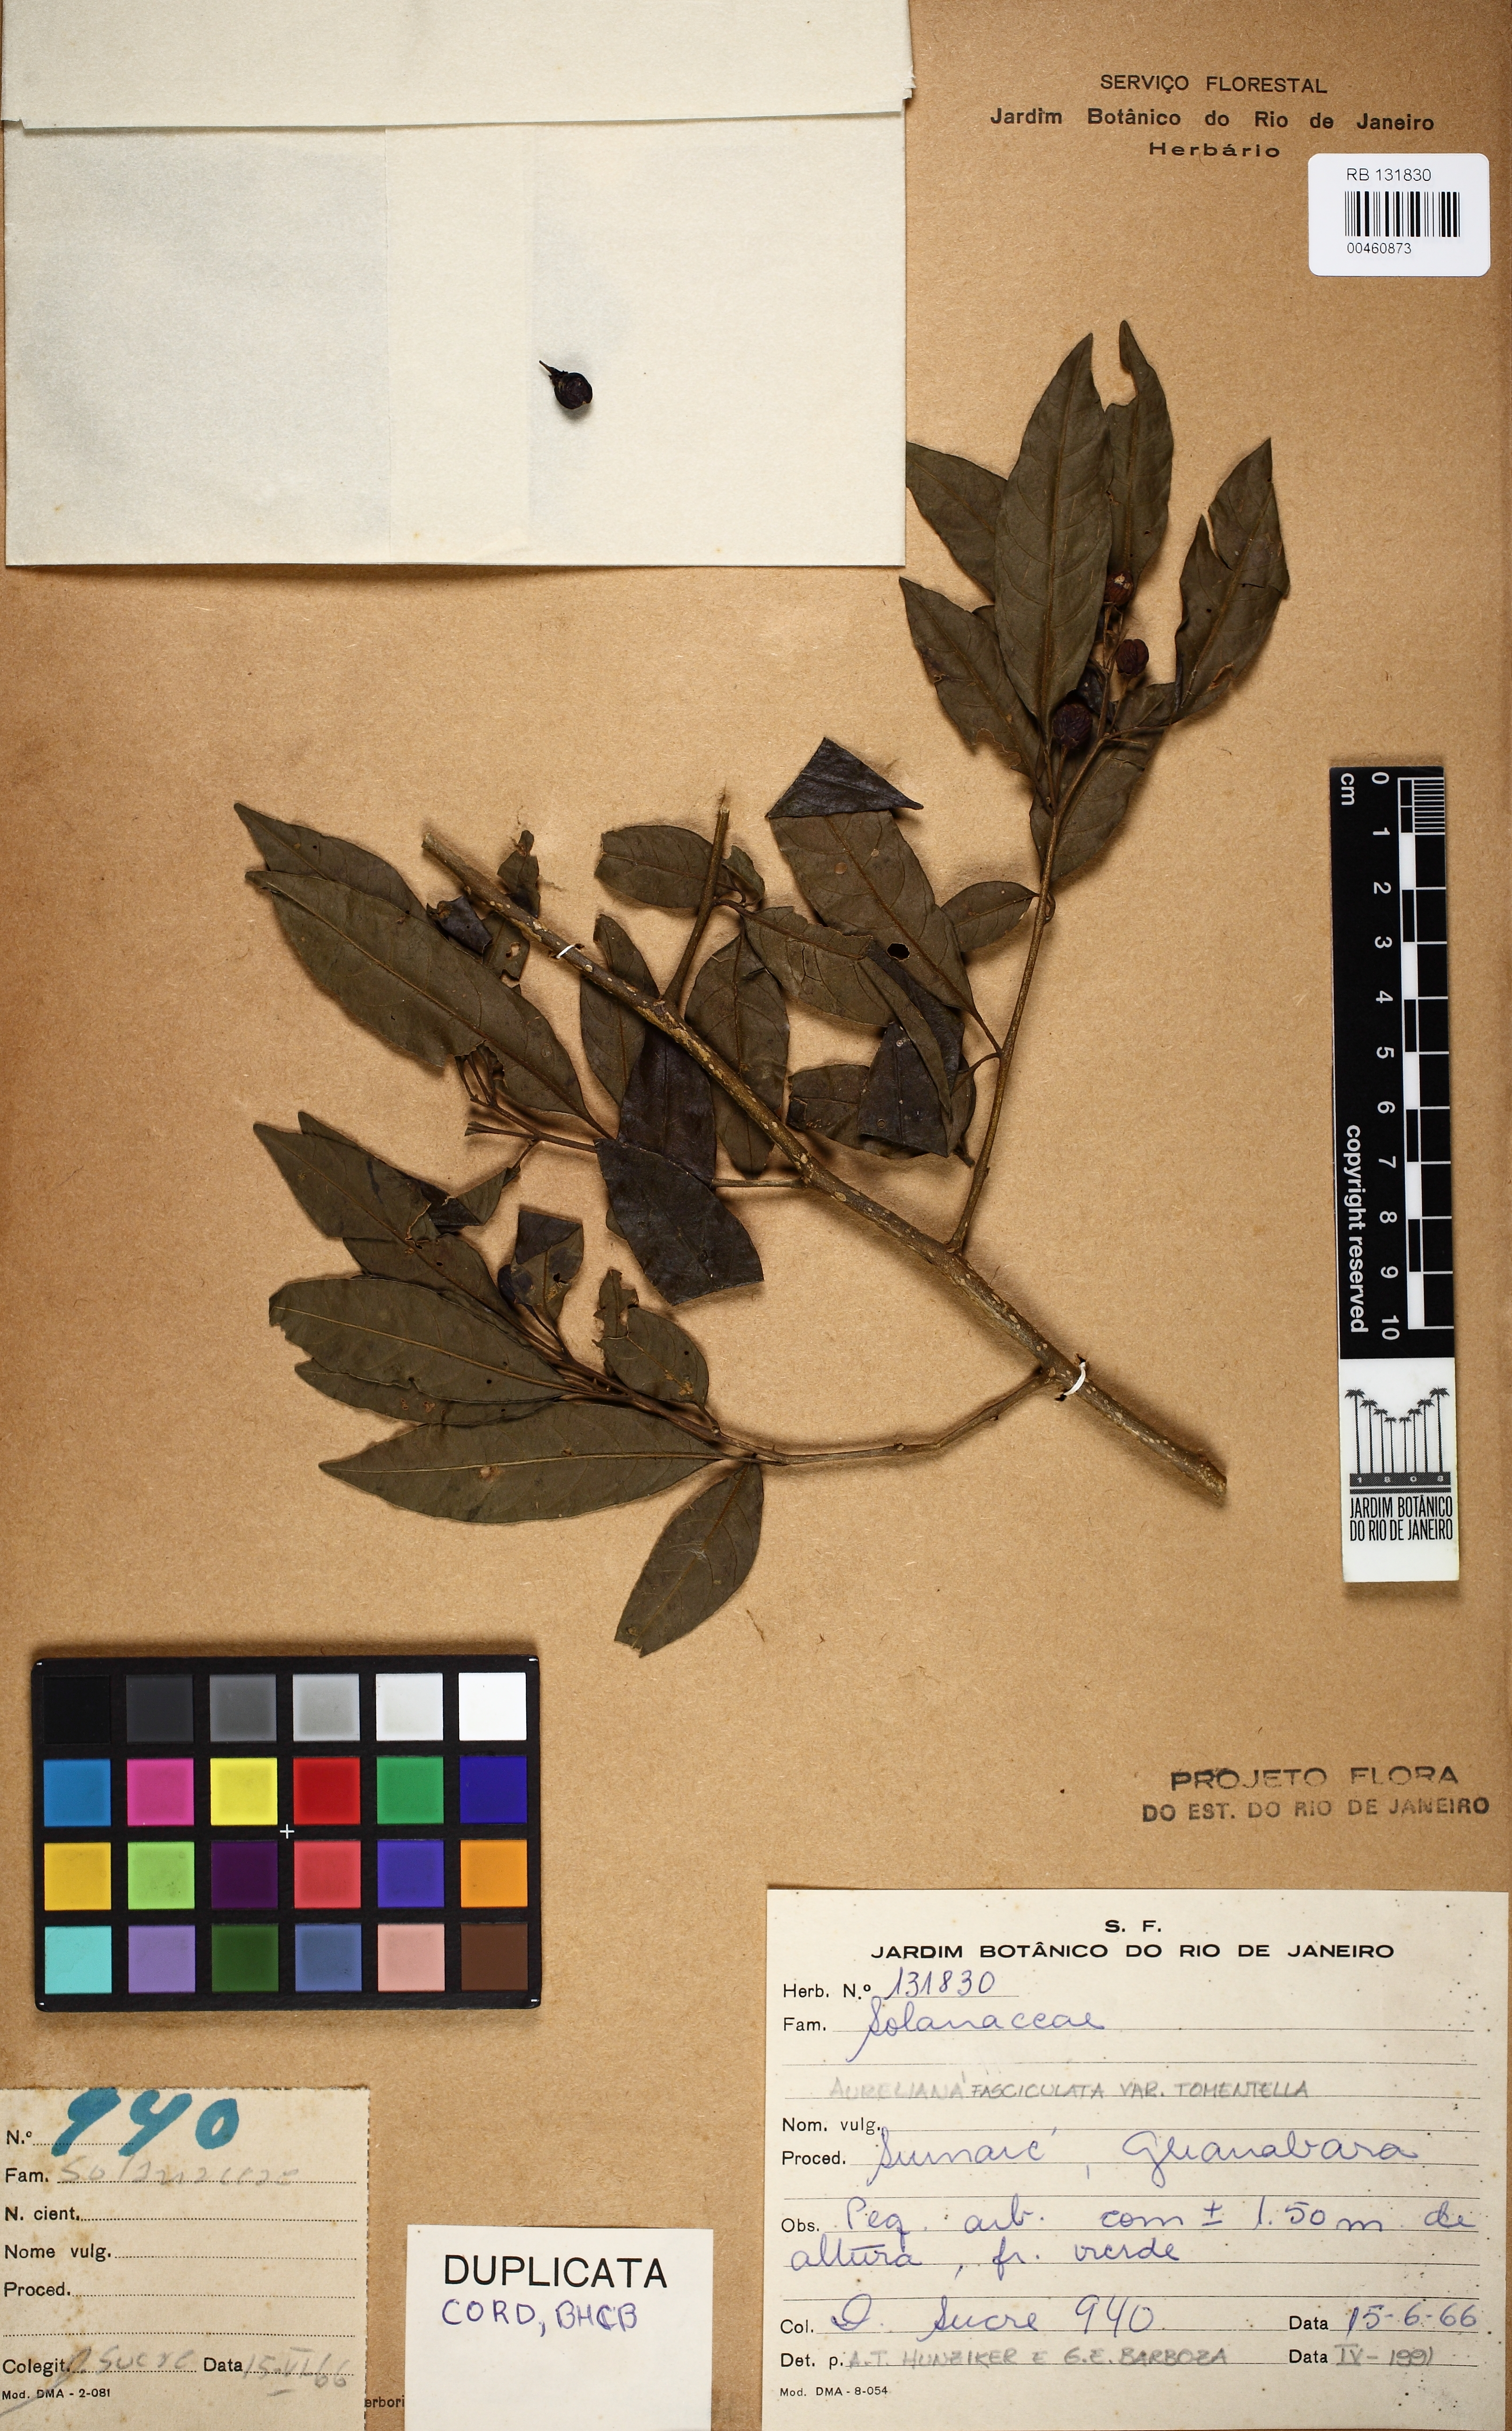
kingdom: Plantae
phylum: Tracheophyta
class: Magnoliopsida
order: Solanales
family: Solanaceae
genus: Athenaea
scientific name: Athenaea fasciculata
